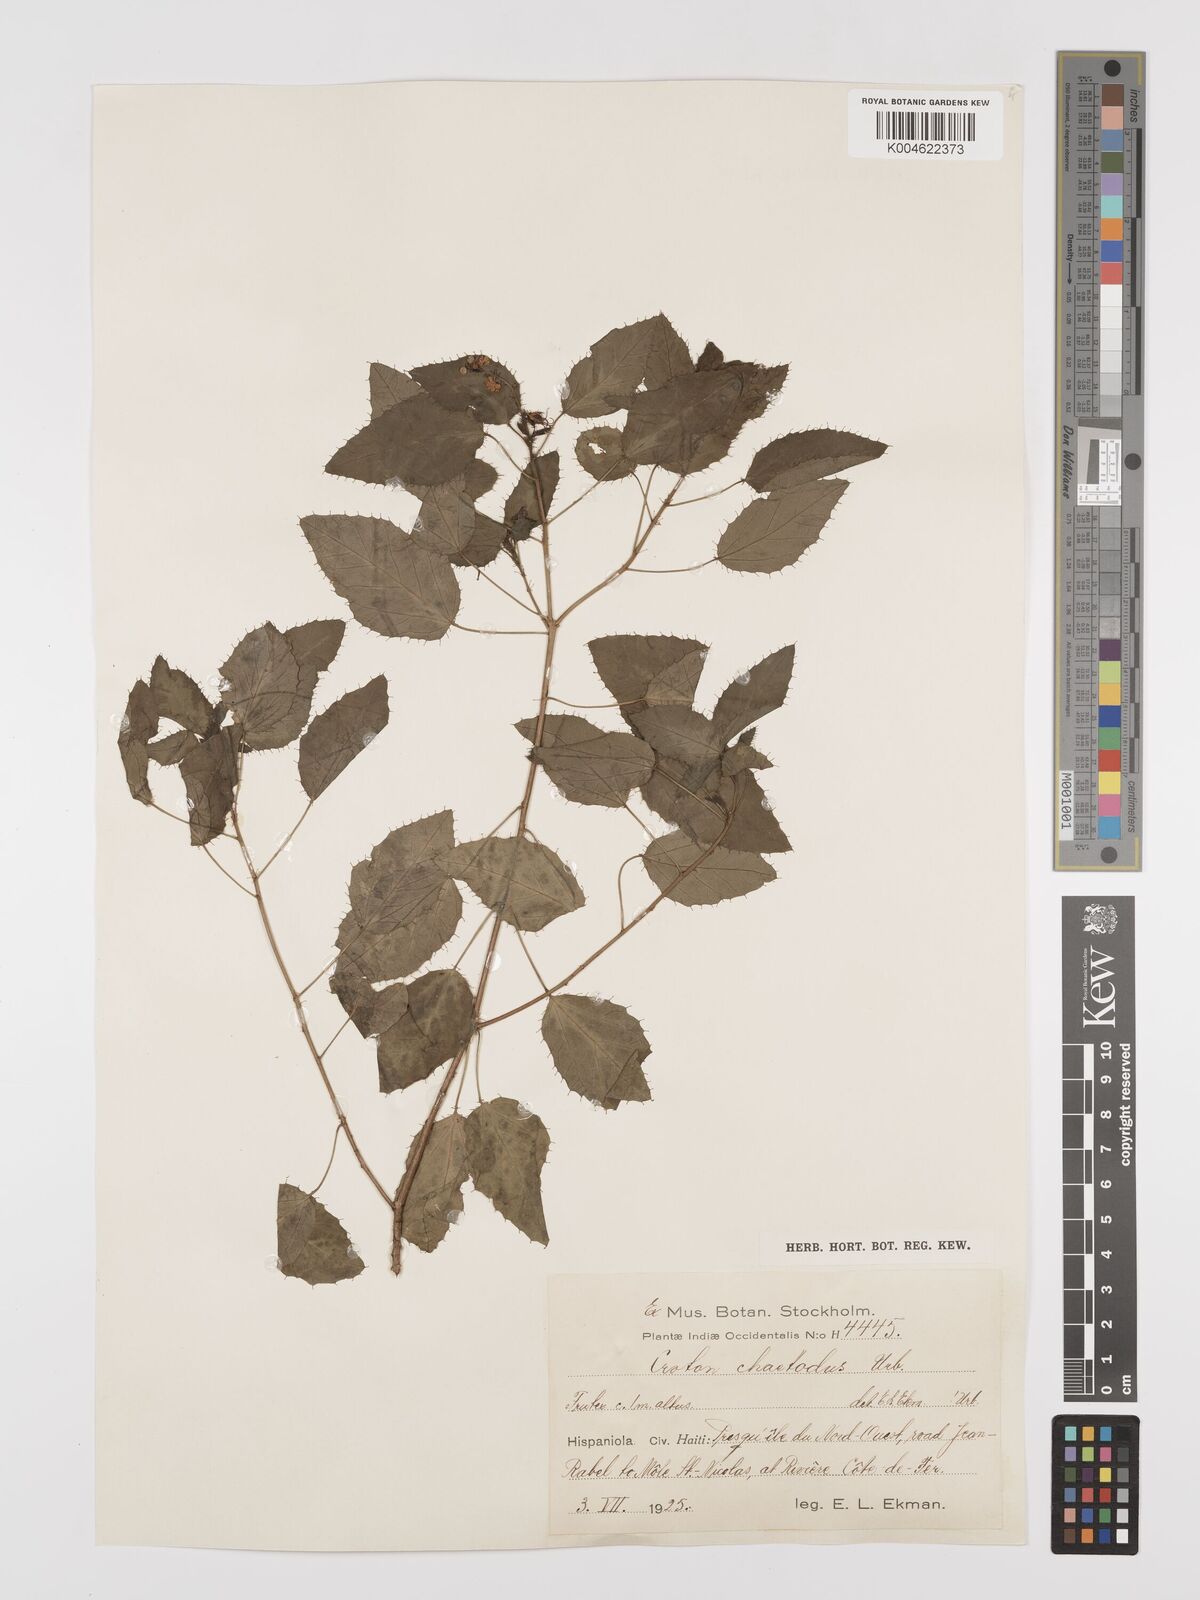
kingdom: Plantae
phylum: Tracheophyta
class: Magnoliopsida
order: Malpighiales
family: Euphorbiaceae
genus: Croton
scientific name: Croton ciliatoglandulifer
